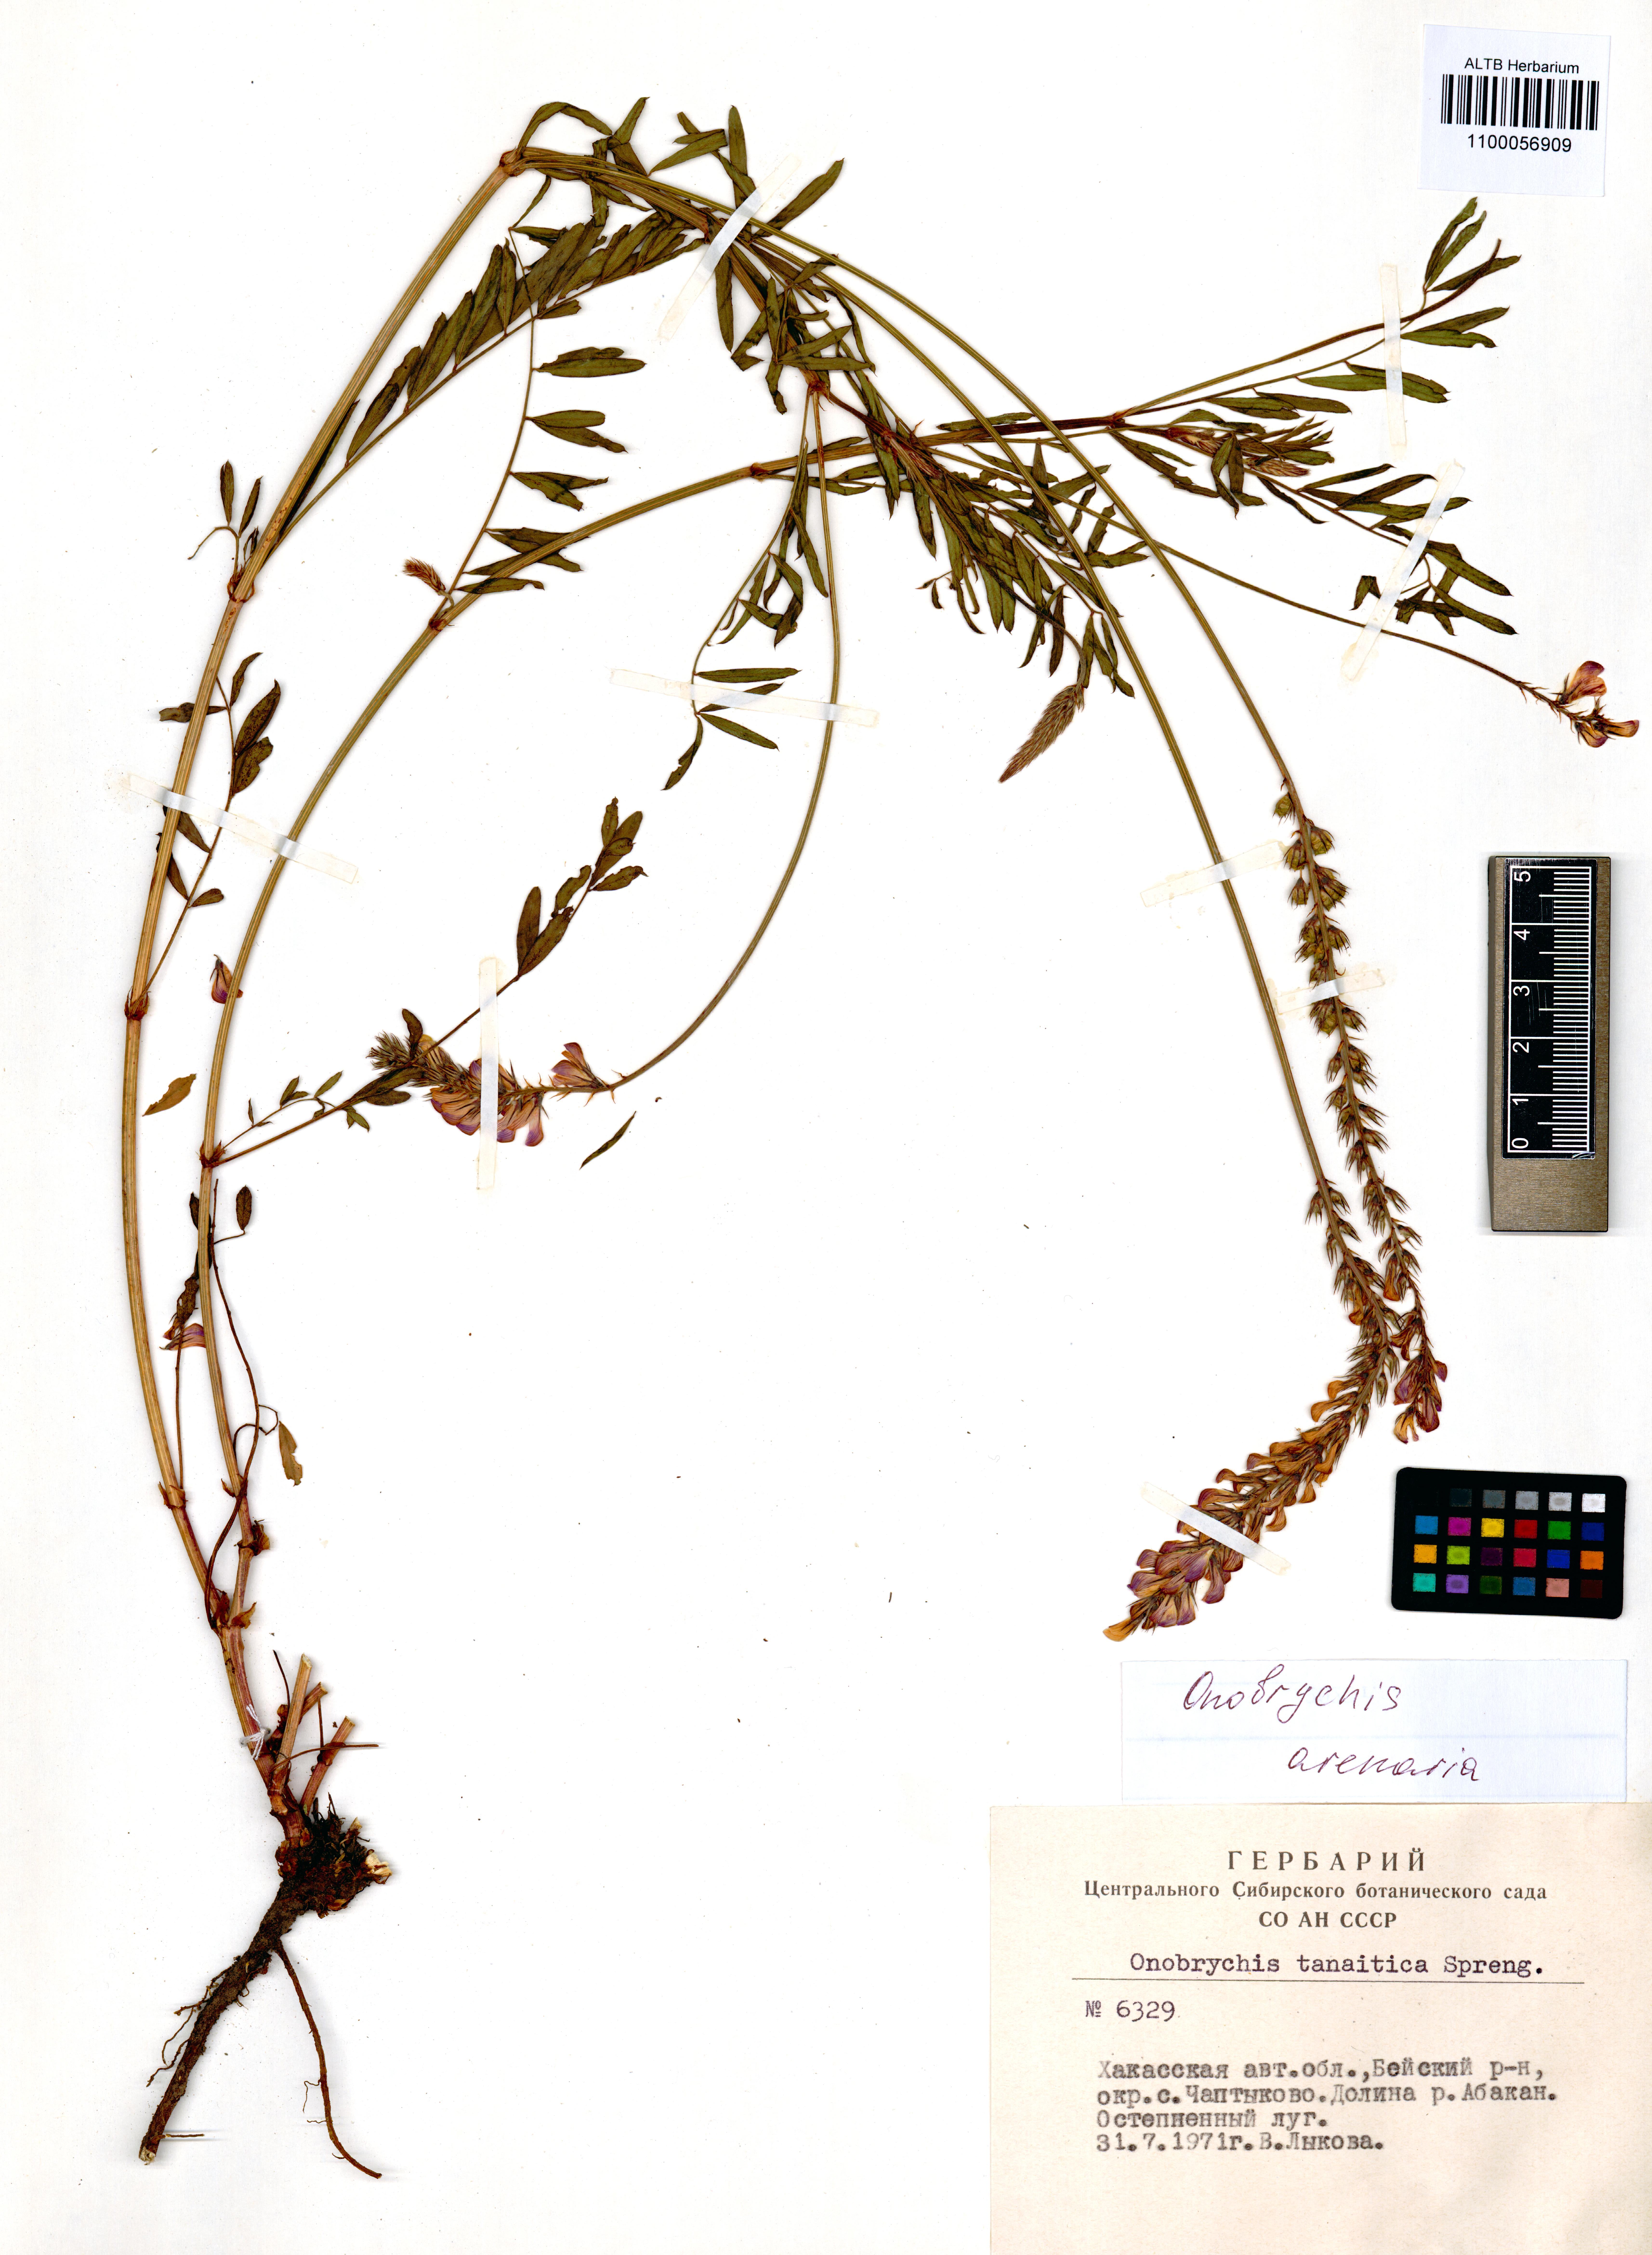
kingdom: Plantae
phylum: Tracheophyta
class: Magnoliopsida
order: Fabales
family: Fabaceae
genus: Onobrychis
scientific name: Onobrychis arenaria
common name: Sand esparcet
